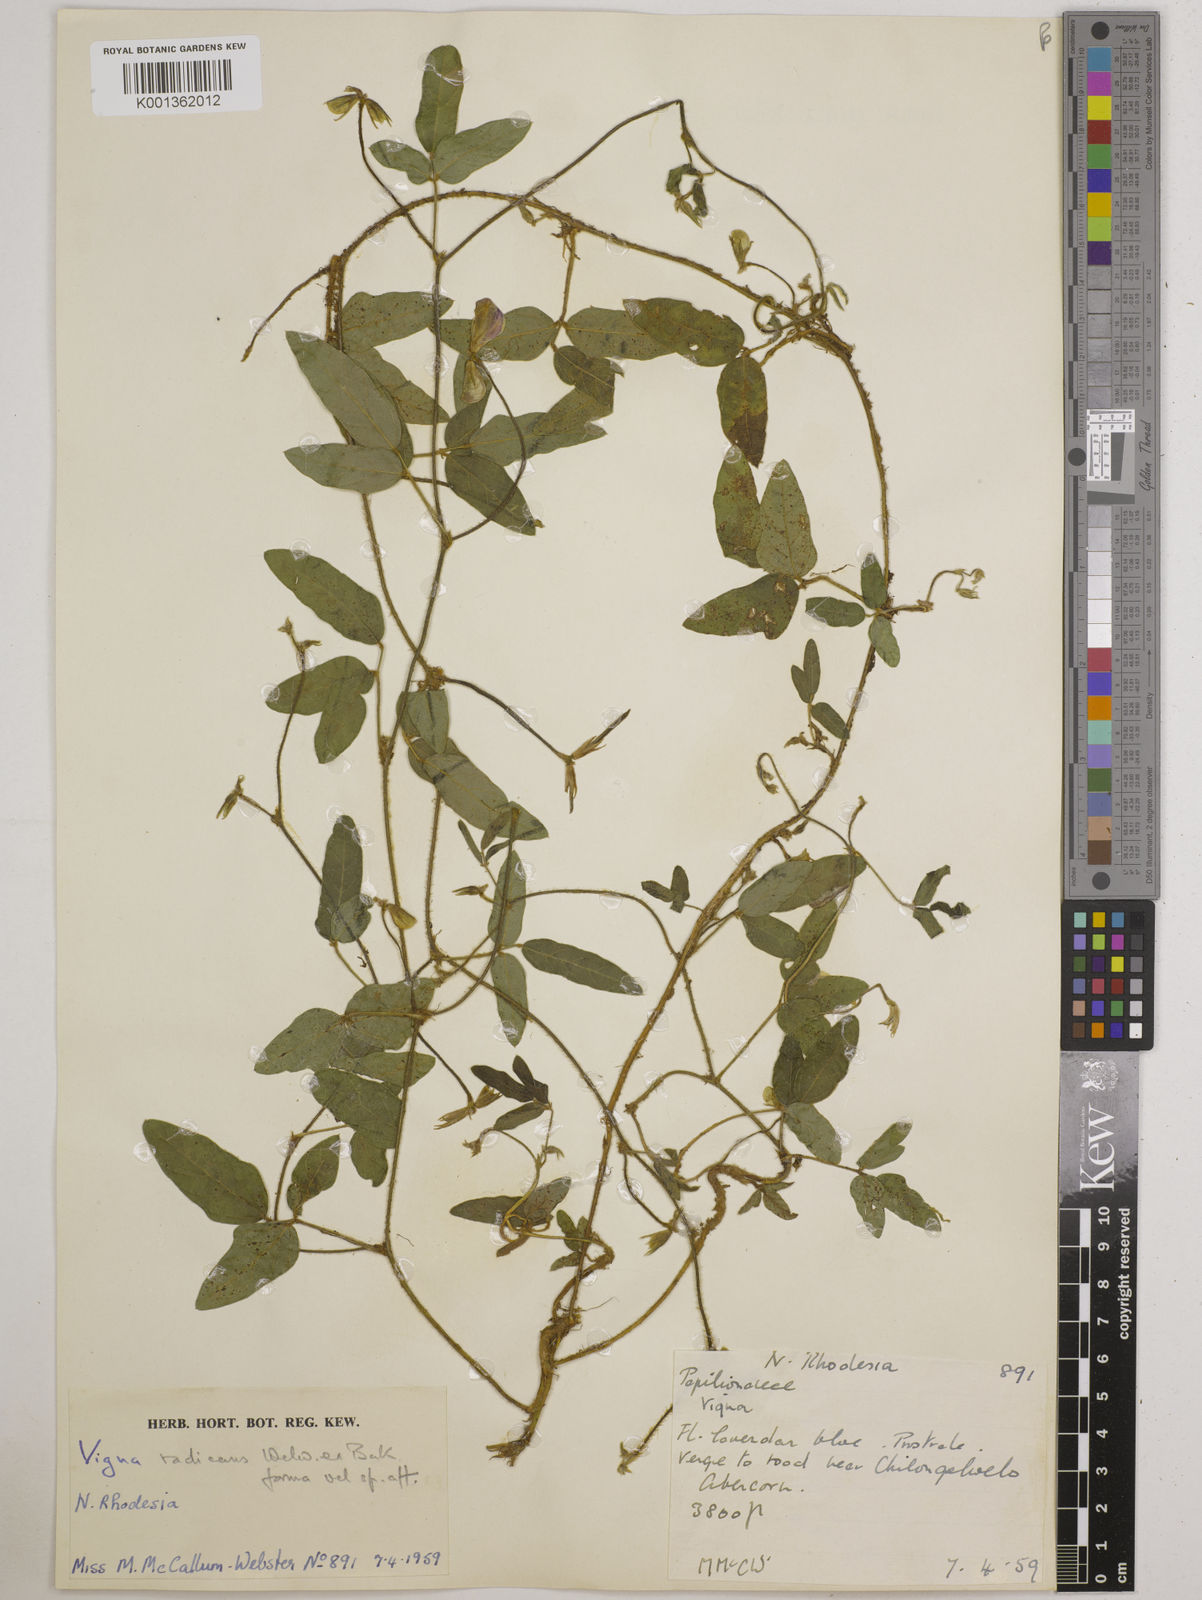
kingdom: Plantae
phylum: Tracheophyta
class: Magnoliopsida
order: Fabales
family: Fabaceae
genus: Vigna
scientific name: Vigna radicans
